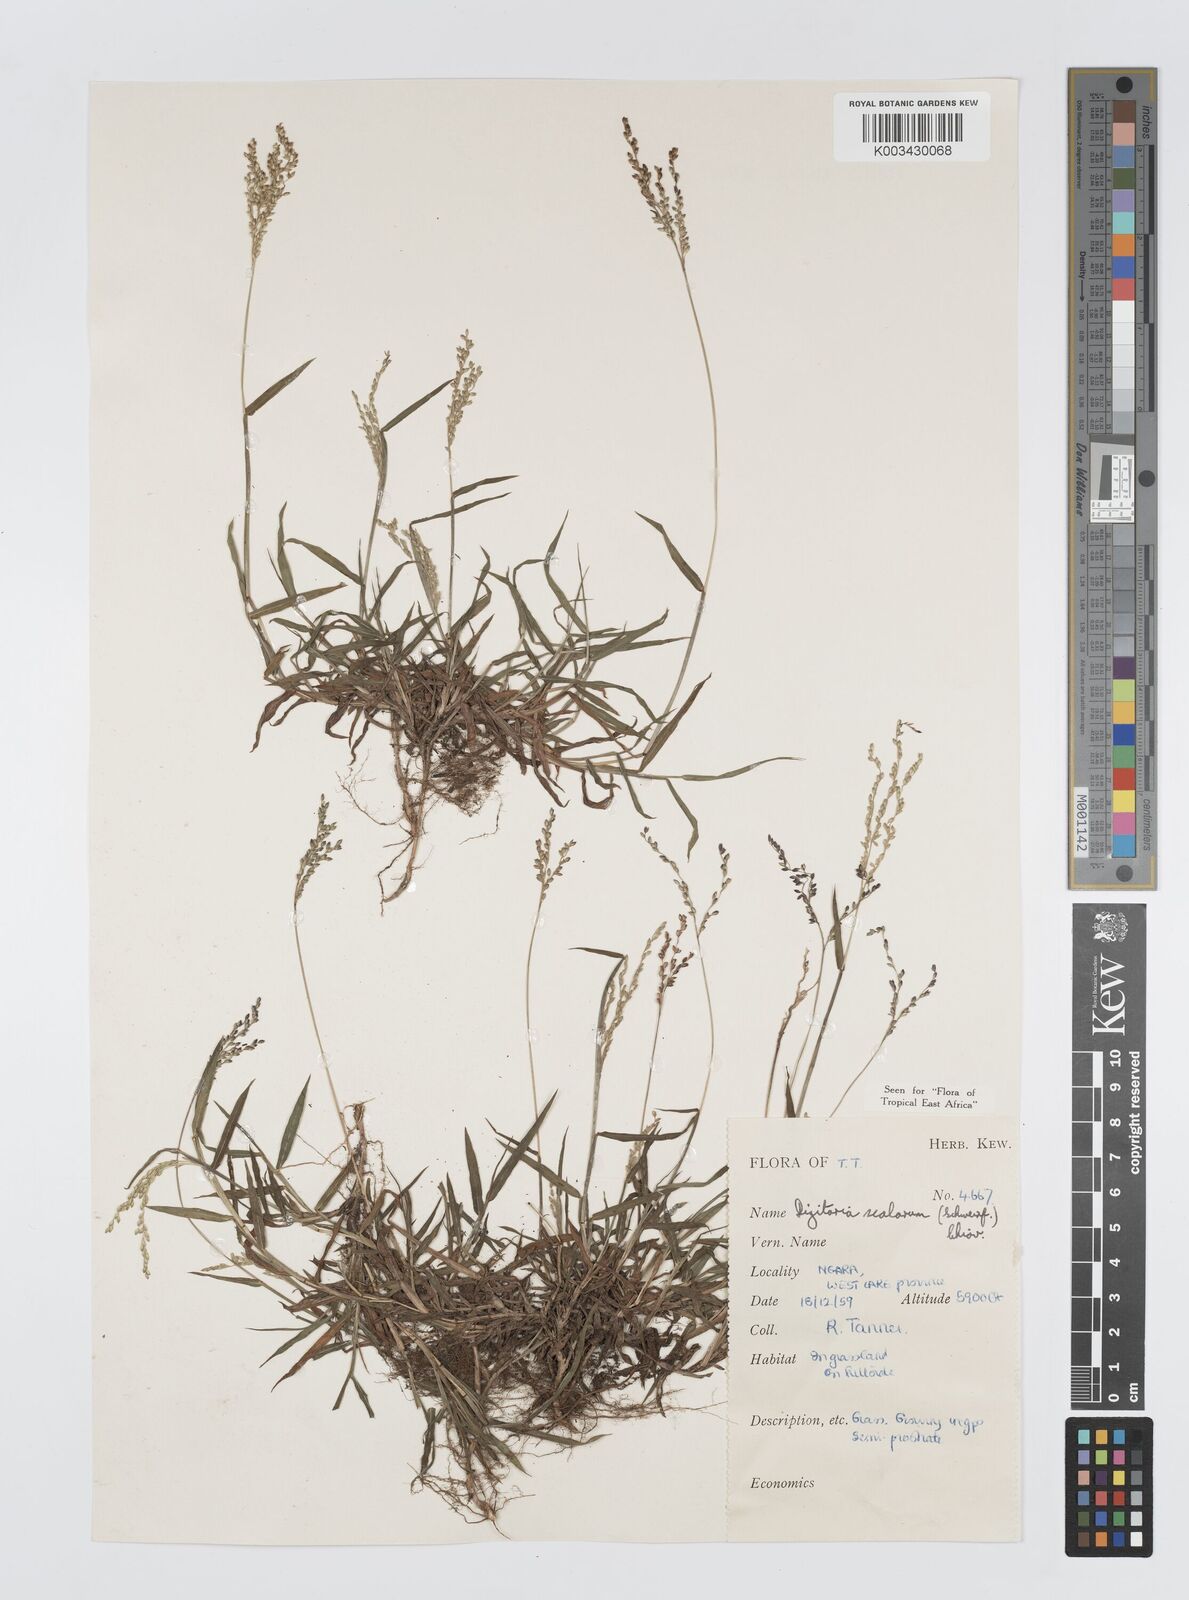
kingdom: Plantae
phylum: Tracheophyta
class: Liliopsida
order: Poales
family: Poaceae
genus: Digitaria
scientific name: Digitaria abyssinica
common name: African couchgrass
